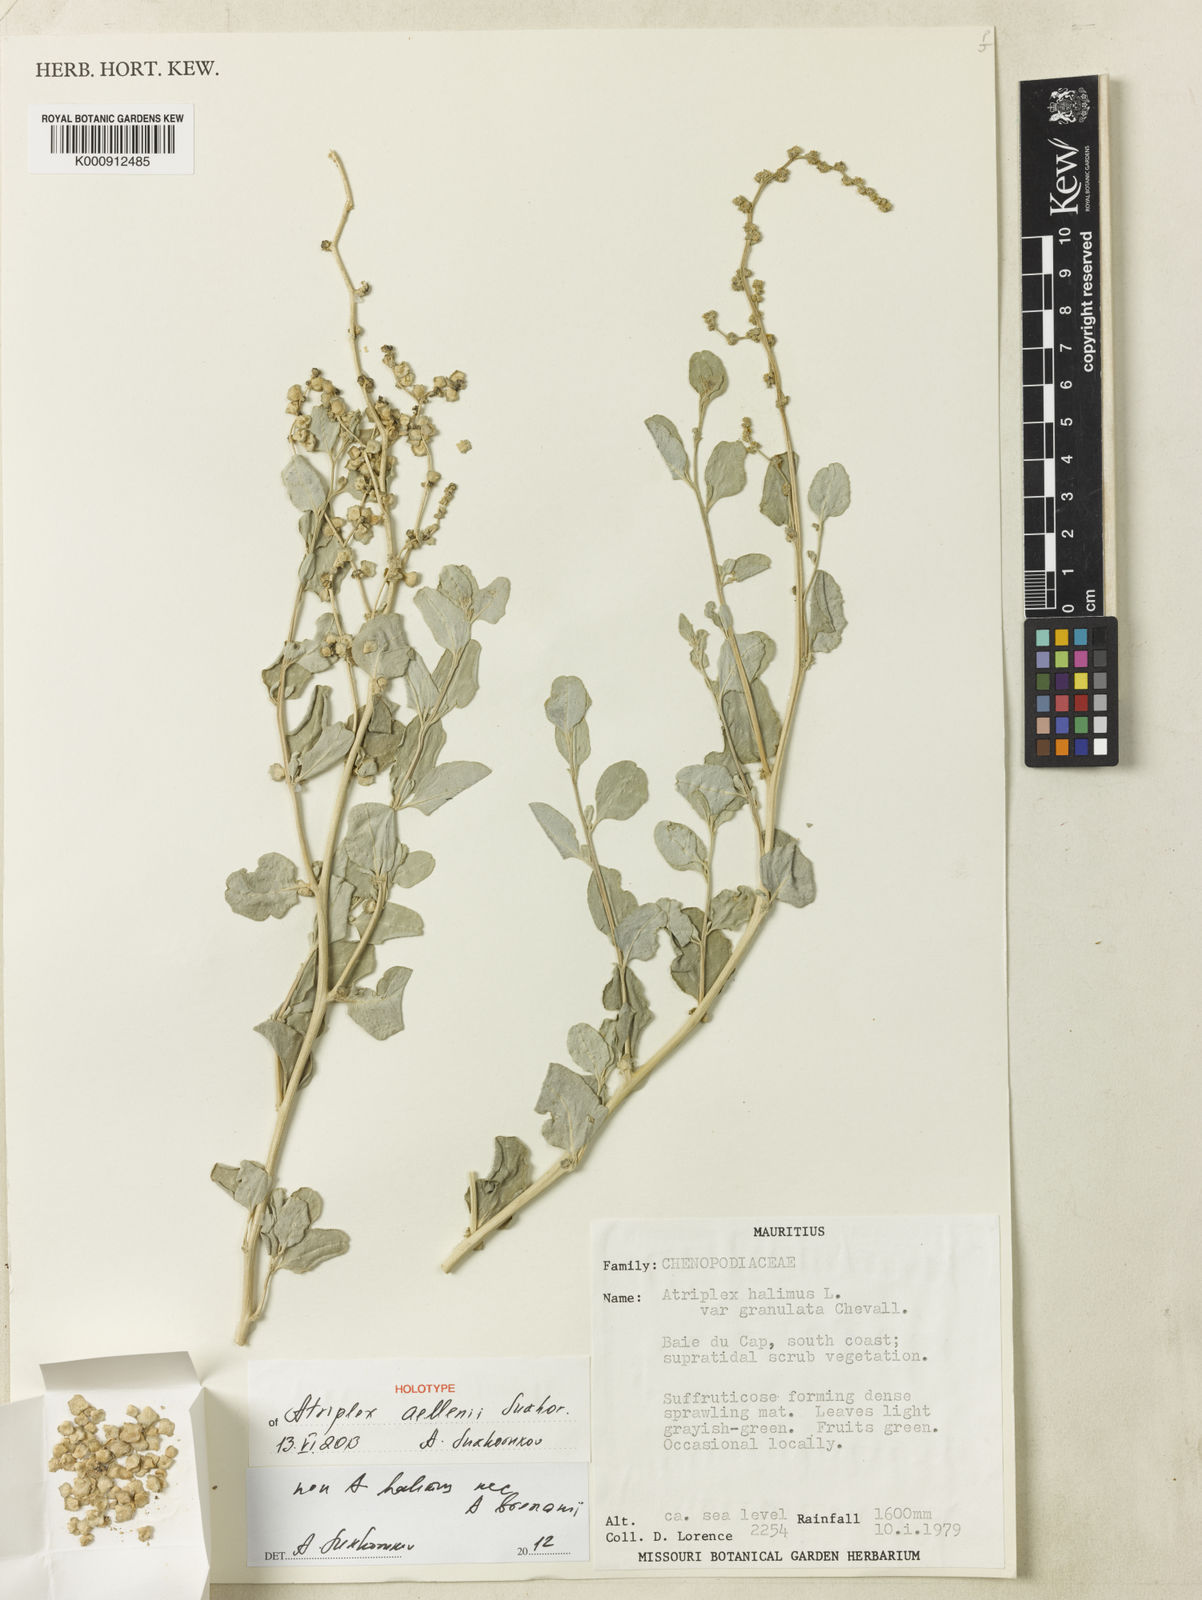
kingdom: Plantae
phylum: Tracheophyta
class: Magnoliopsida
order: Caryophyllales
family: Amaranthaceae
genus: Atriplex
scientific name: Atriplex aellenii
